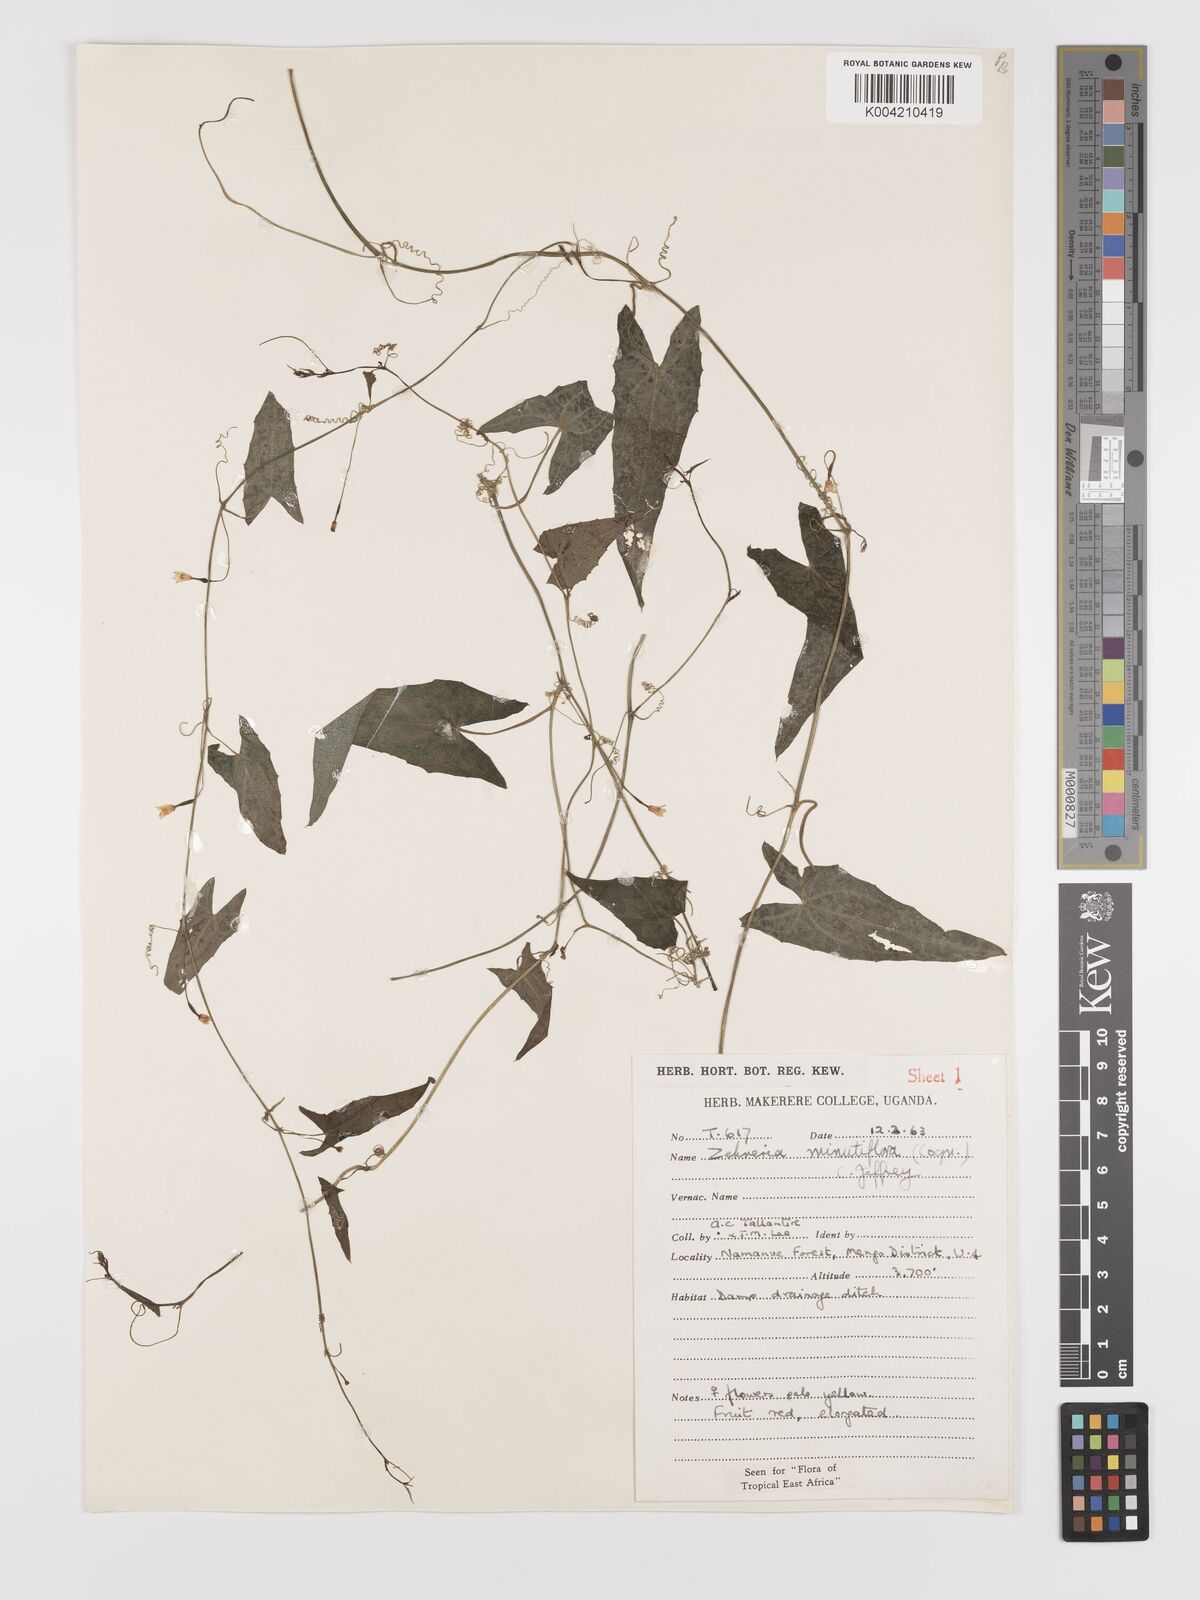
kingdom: Plantae
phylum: Tracheophyta
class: Magnoliopsida
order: Cucurbitales
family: Cucurbitaceae
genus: Zehneria
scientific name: Zehneria minutiflora
